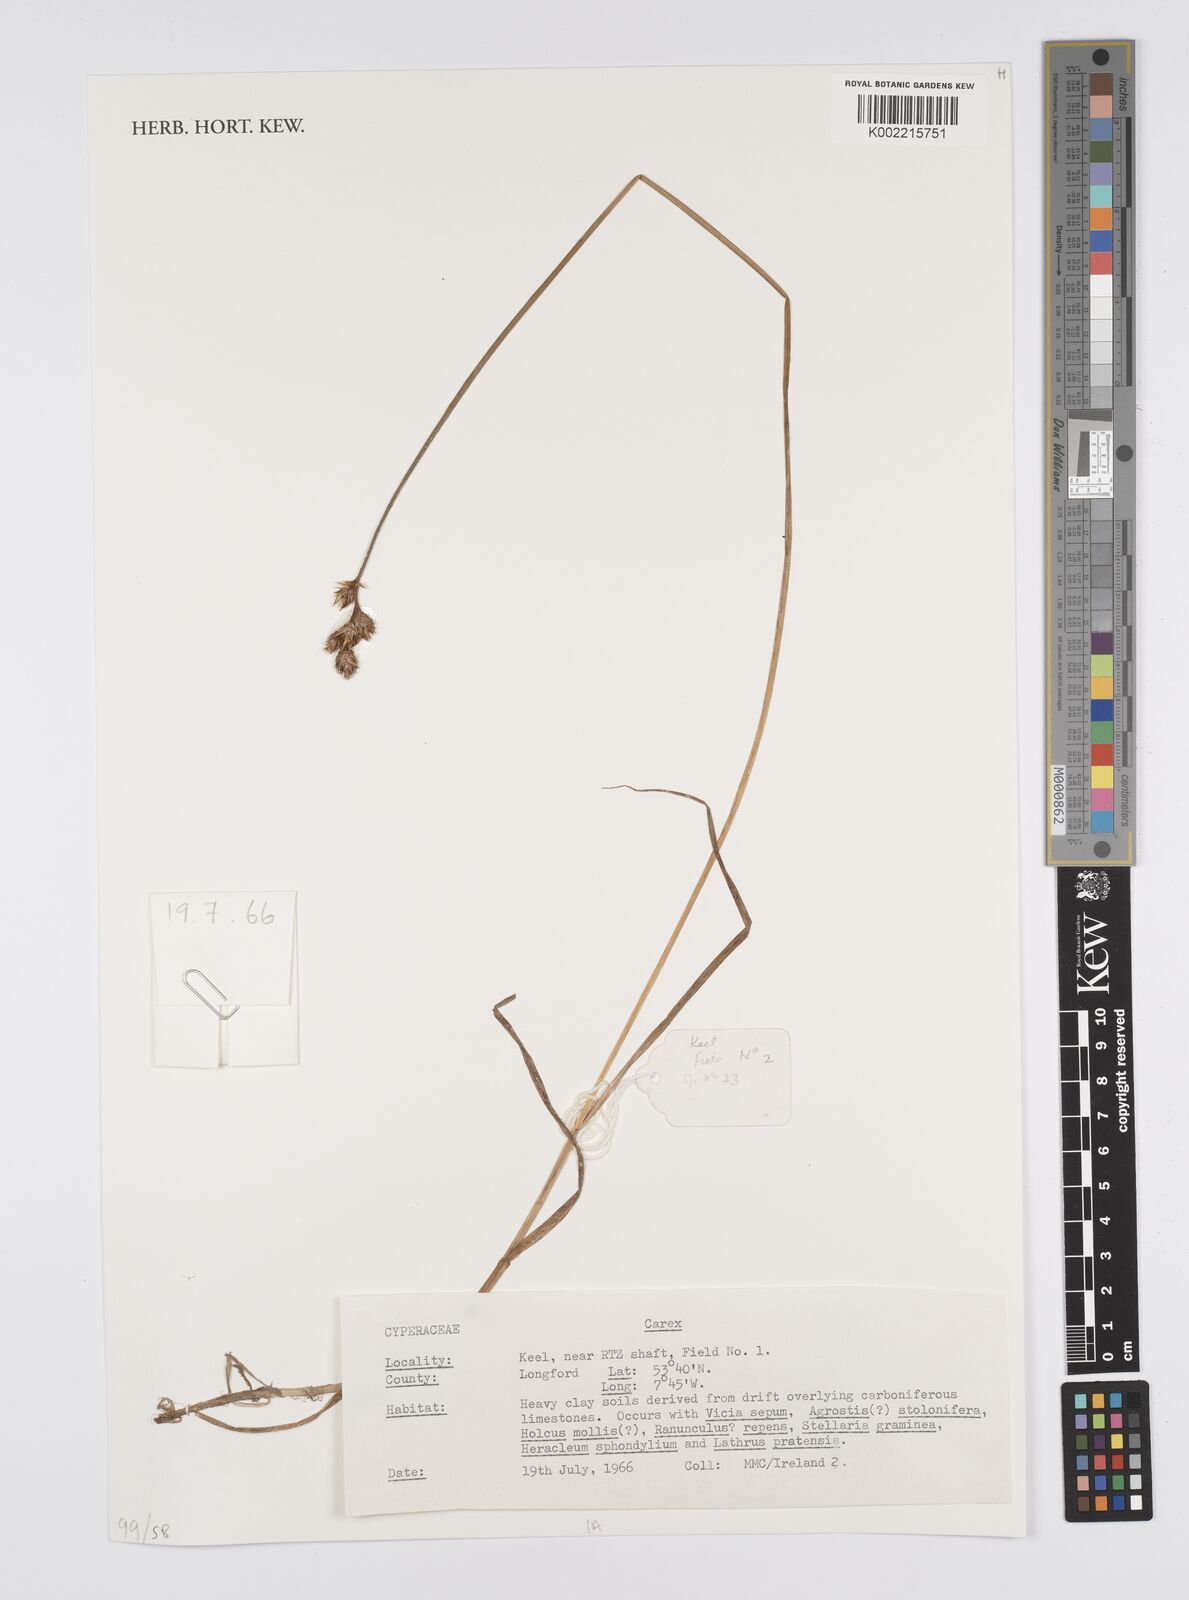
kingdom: Plantae
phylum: Tracheophyta
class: Liliopsida
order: Poales
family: Cyperaceae
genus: Carex
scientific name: Carex
